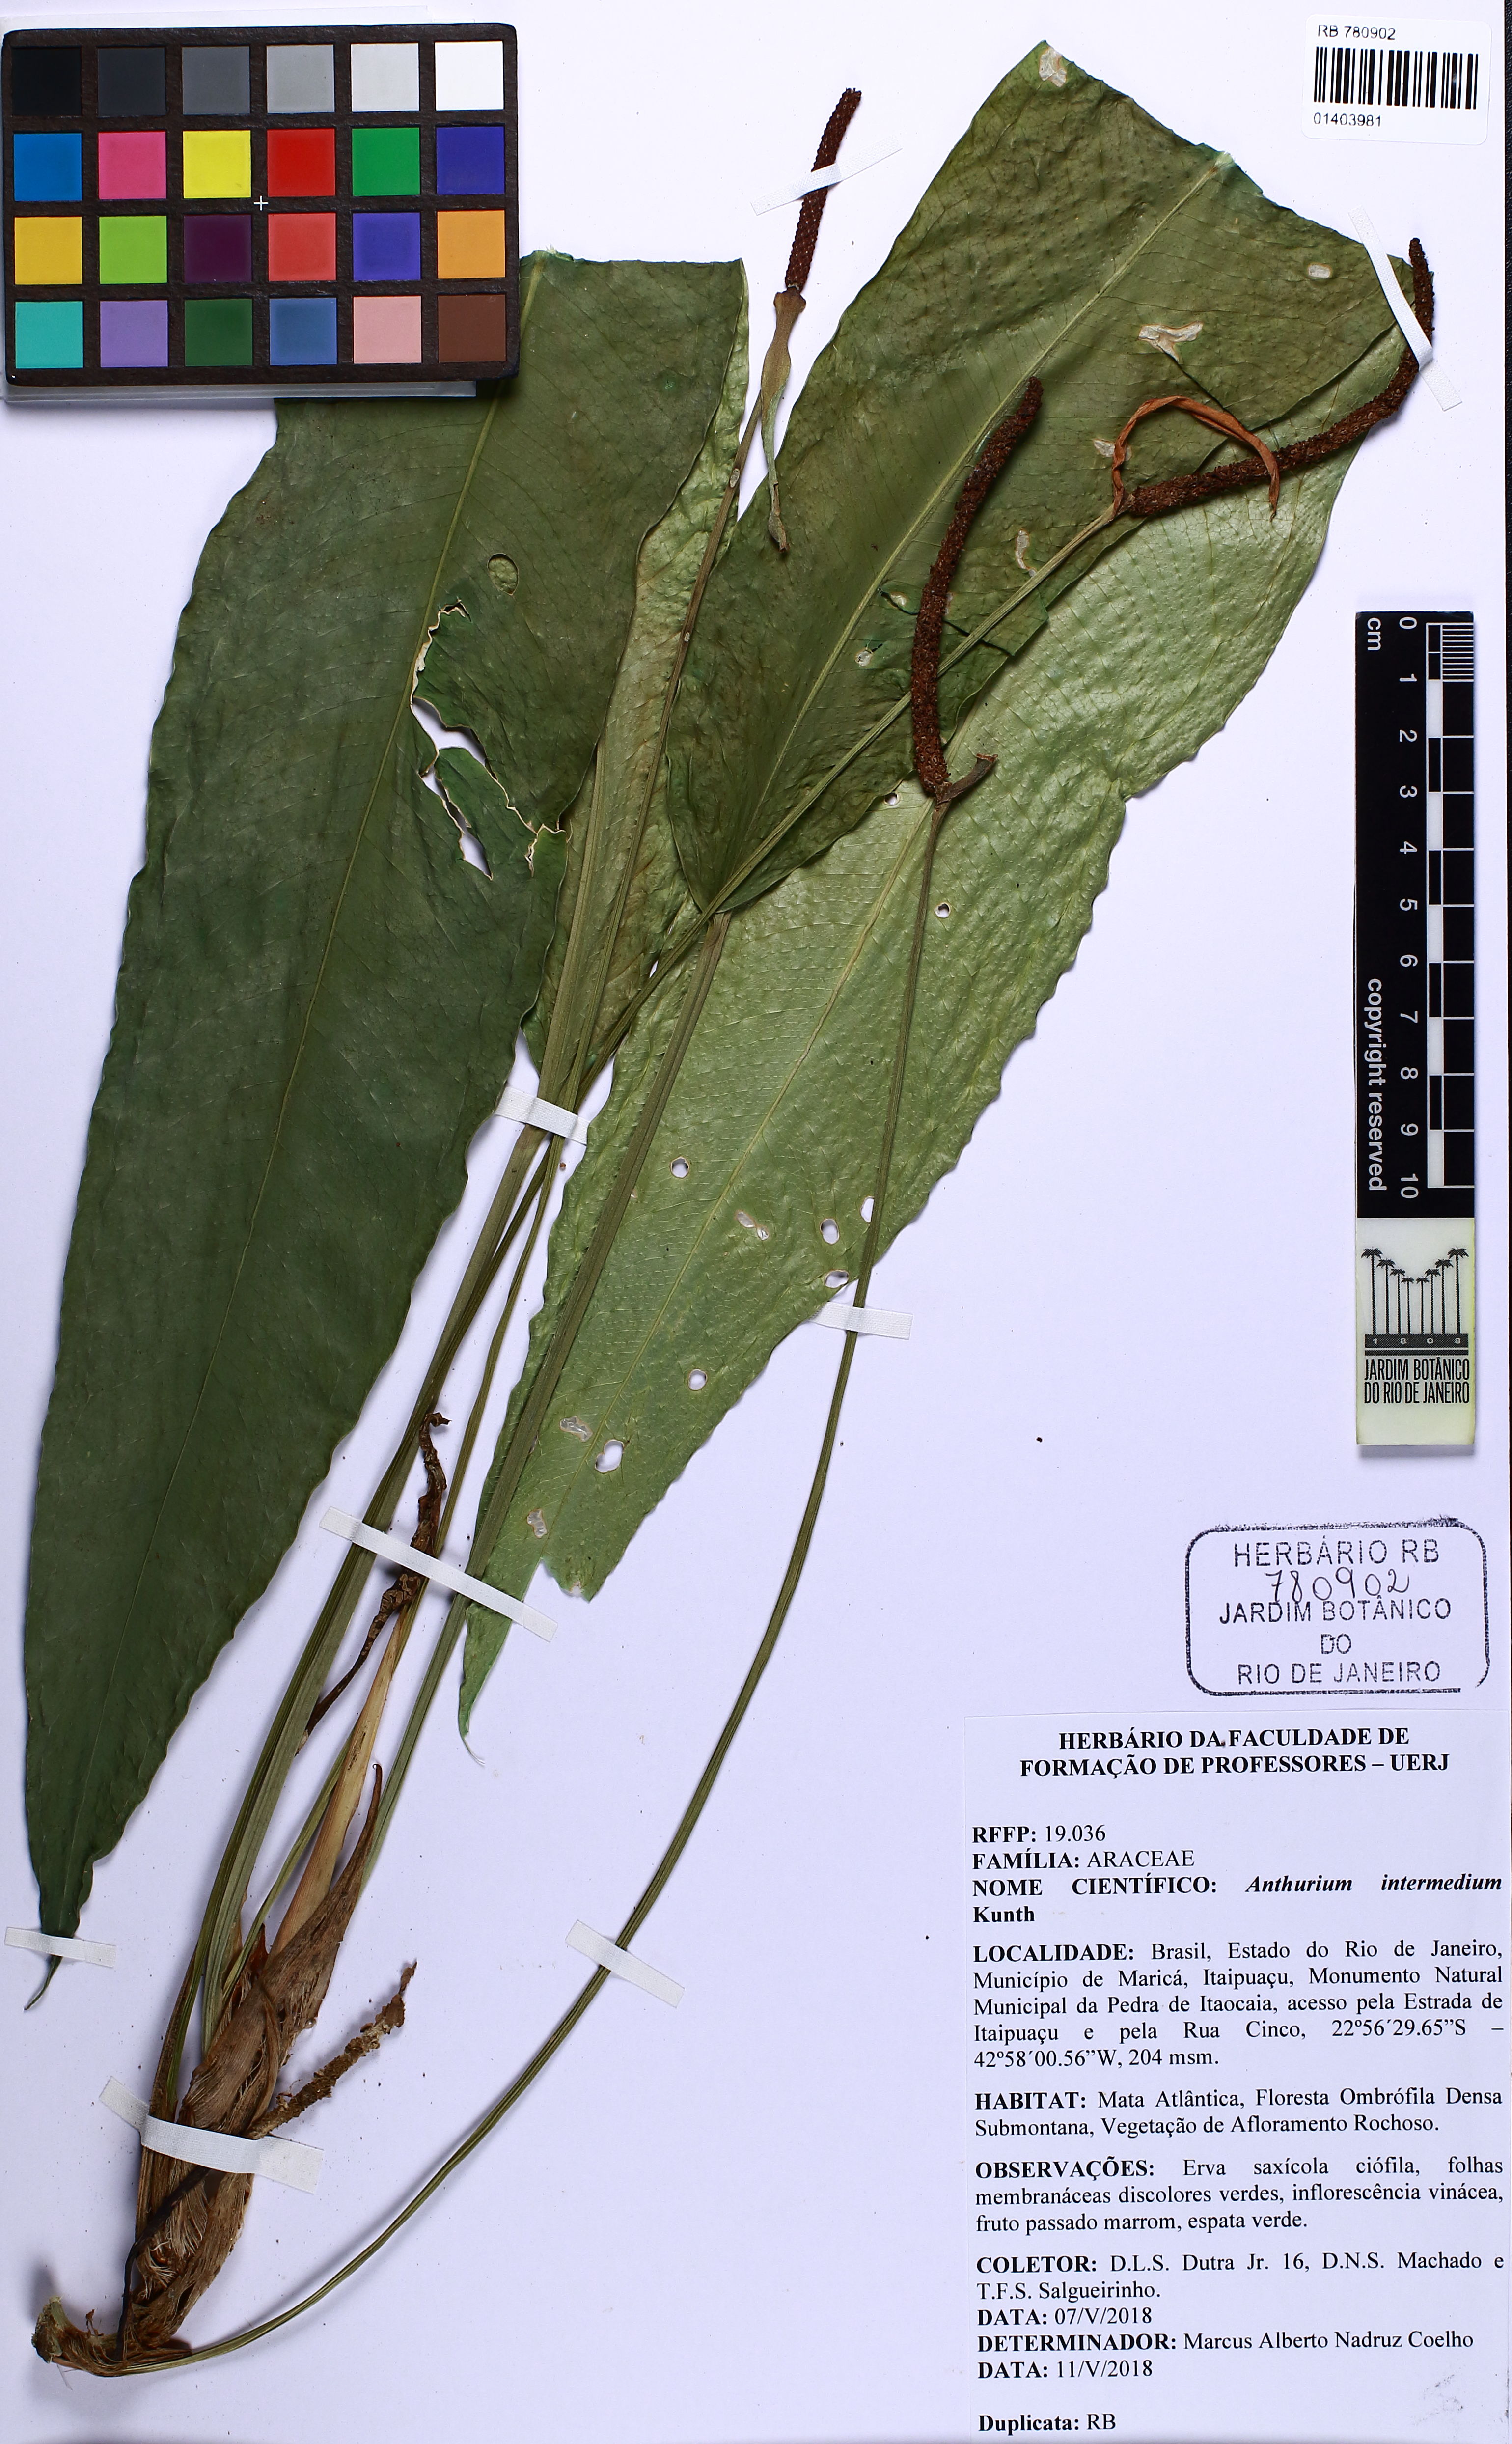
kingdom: Plantae
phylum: Tracheophyta
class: Liliopsida
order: Alismatales
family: Araceae
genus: Anthurium
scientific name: Anthurium intermedium
